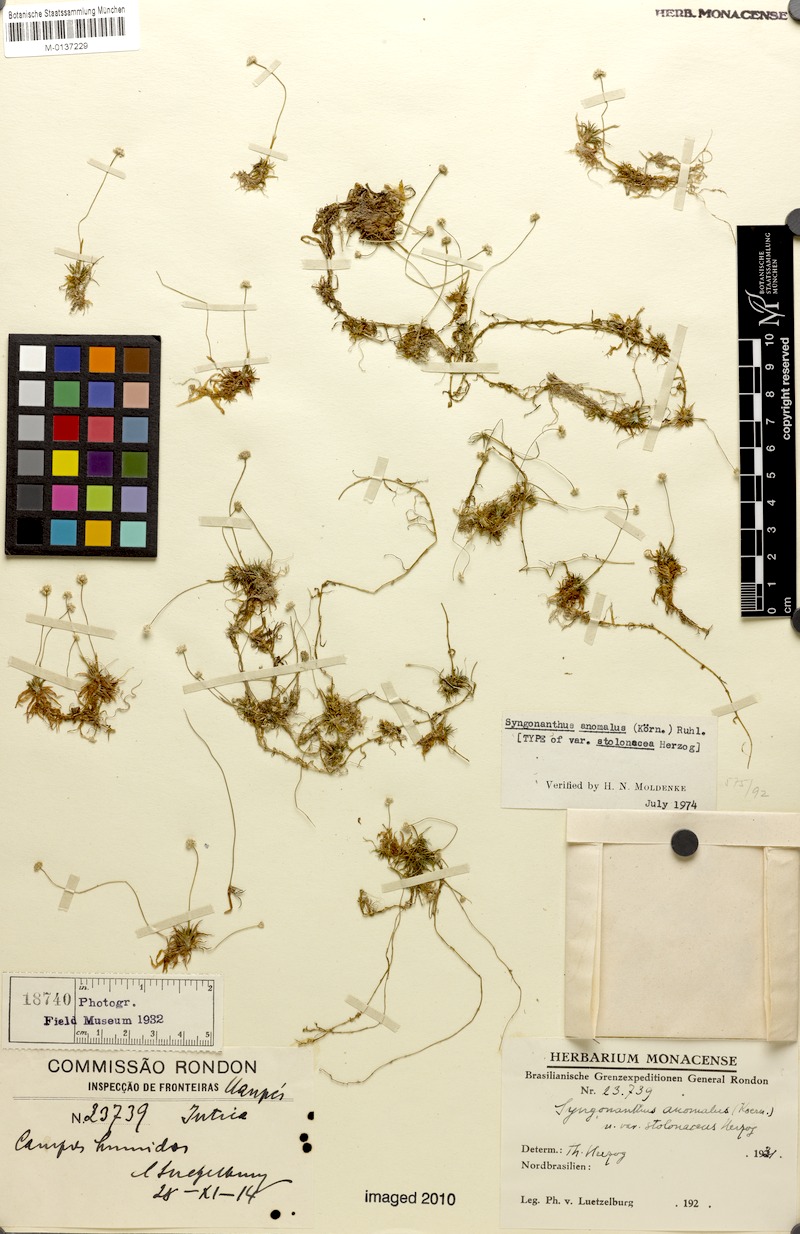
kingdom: Plantae
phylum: Tracheophyta
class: Liliopsida
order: Poales
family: Eriocaulaceae
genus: Syngonanthus
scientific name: Syngonanthus anomalus
